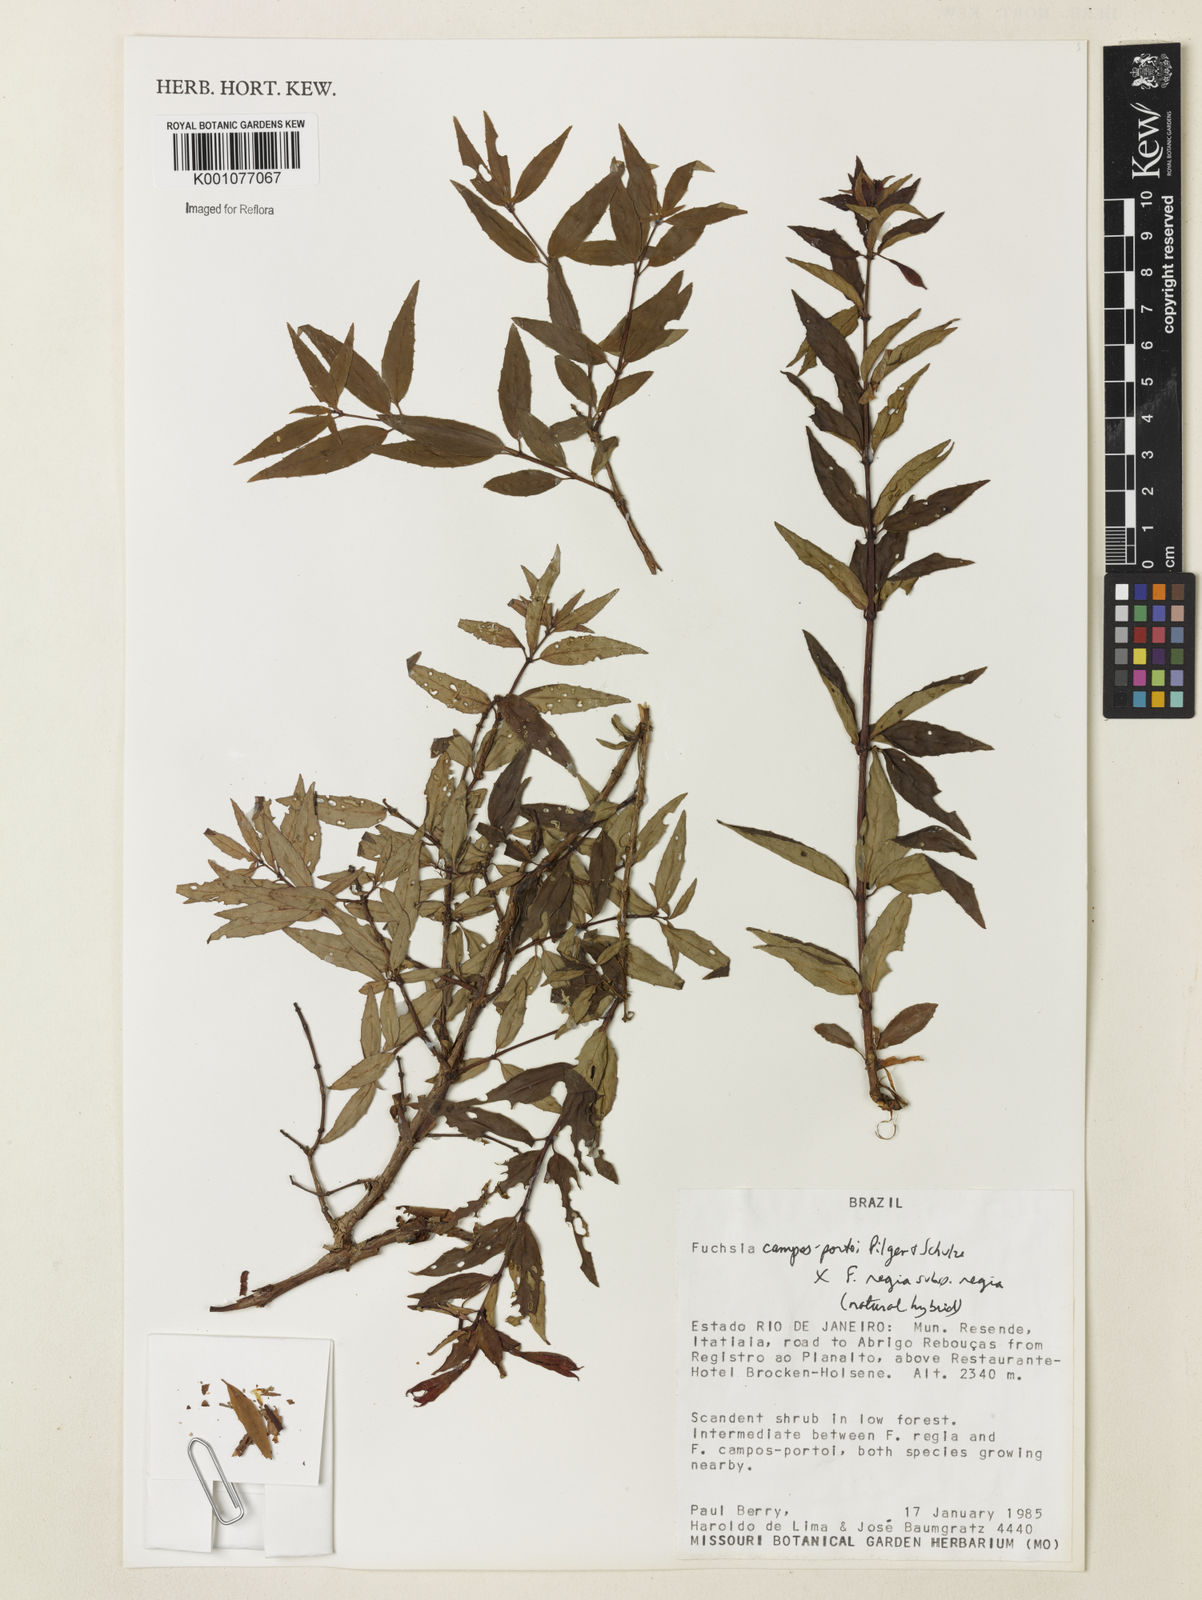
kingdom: Plantae
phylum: Tracheophyta
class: Magnoliopsida
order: Myrtales
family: Onagraceae
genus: Fuchsia
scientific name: Fuchsia
